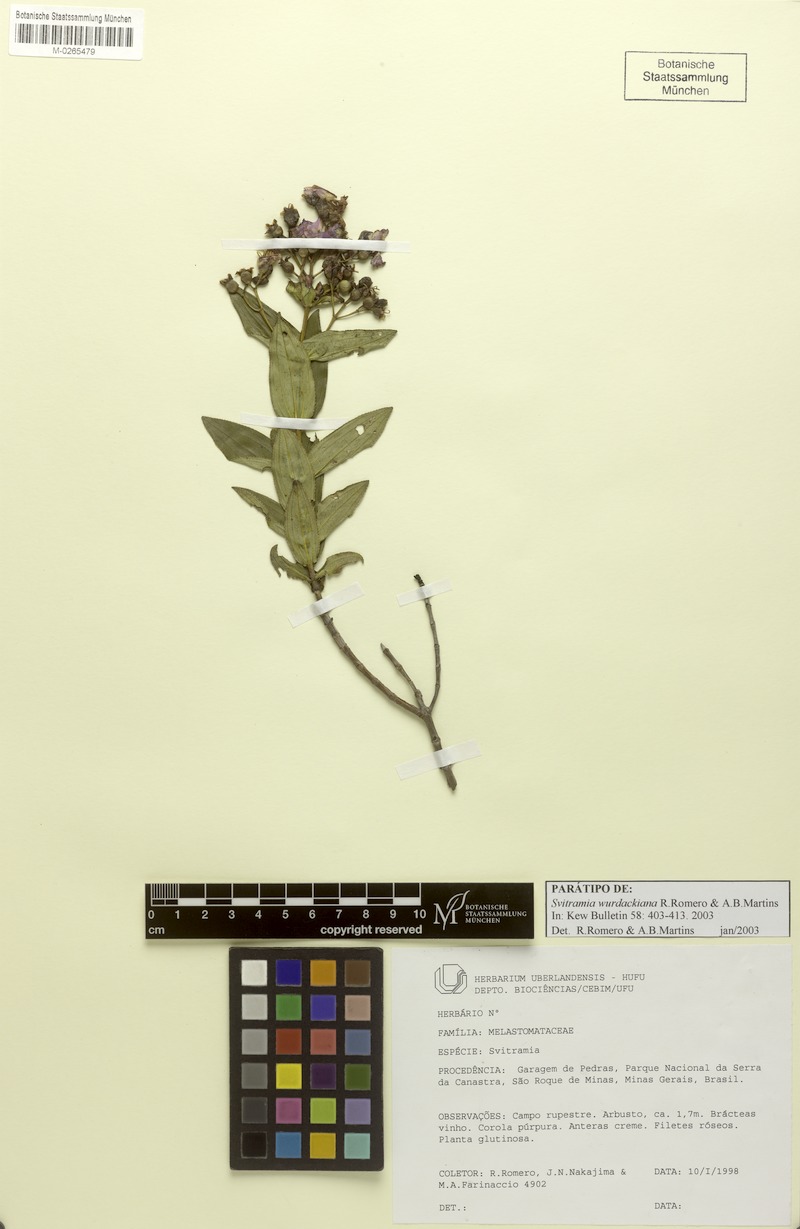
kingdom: Plantae
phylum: Tracheophyta
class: Magnoliopsida
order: Myrtales
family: Melastomataceae
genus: Pleroma
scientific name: Pleroma wurdackianum
